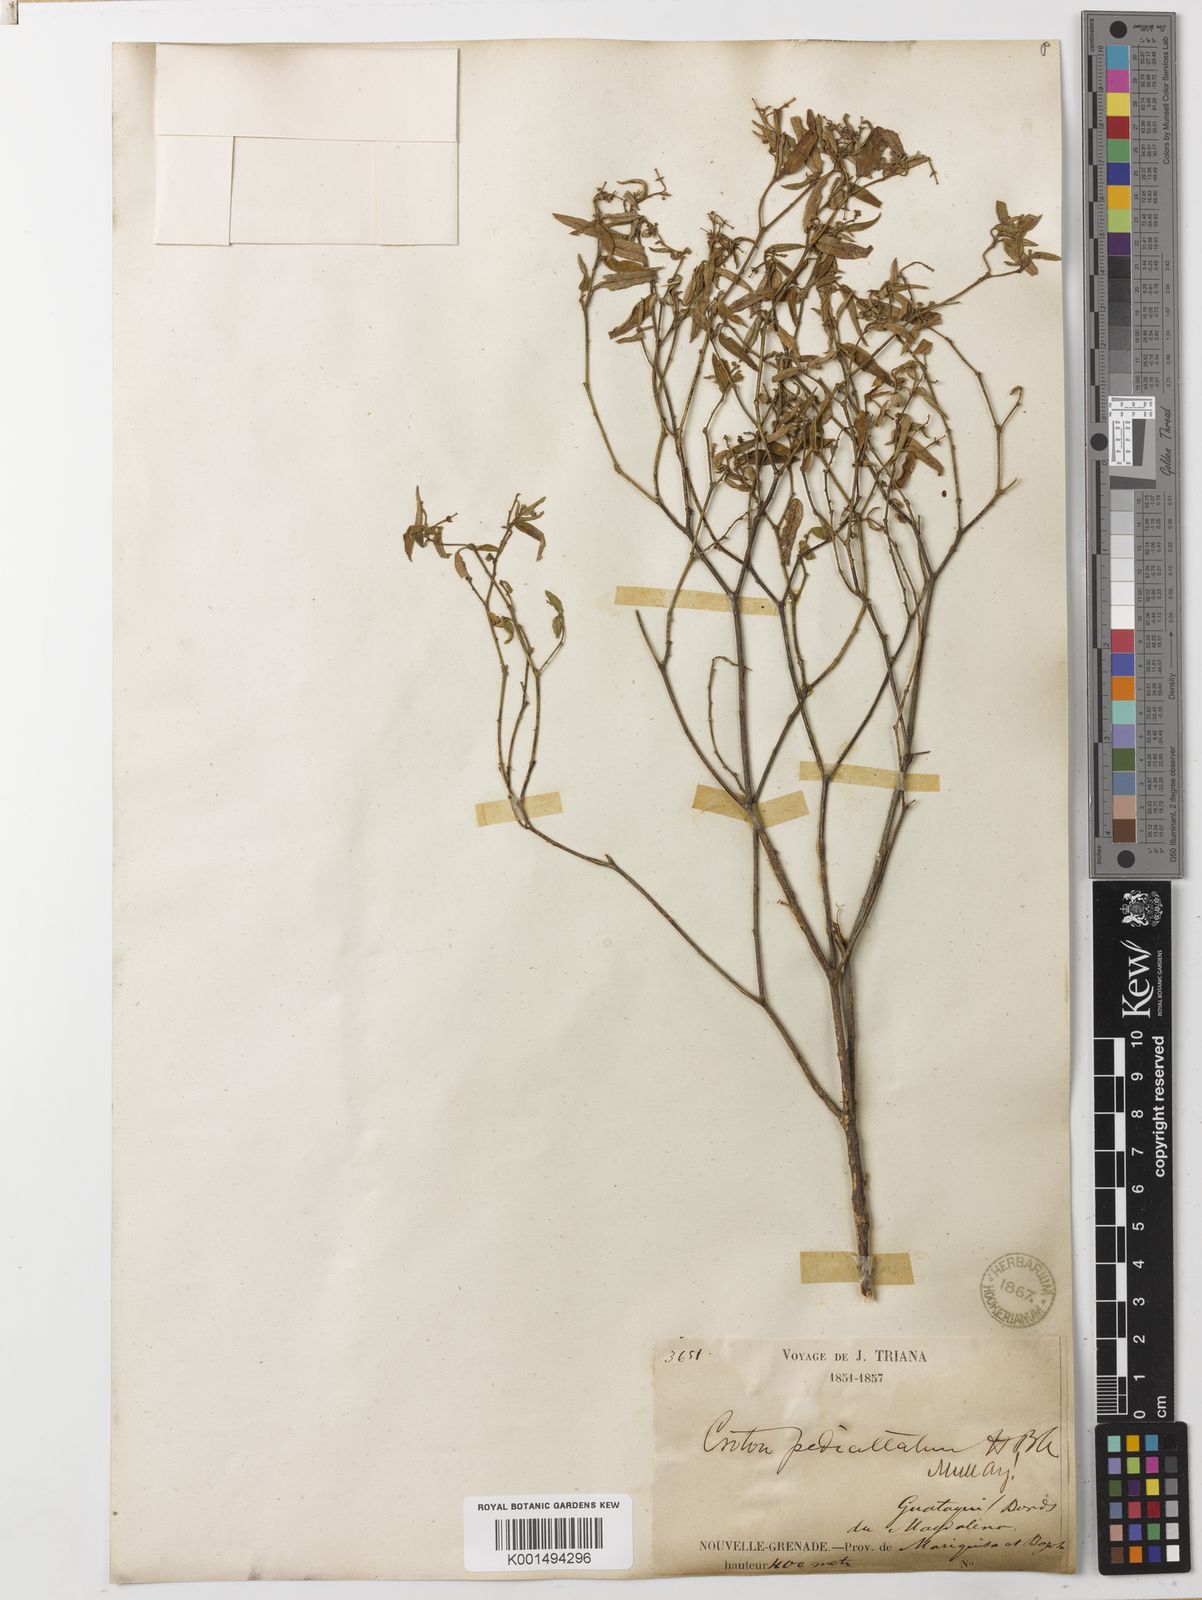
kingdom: Plantae
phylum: Tracheophyta
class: Magnoliopsida
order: Malpighiales
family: Euphorbiaceae
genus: Croton
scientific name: Croton pedicellatus
